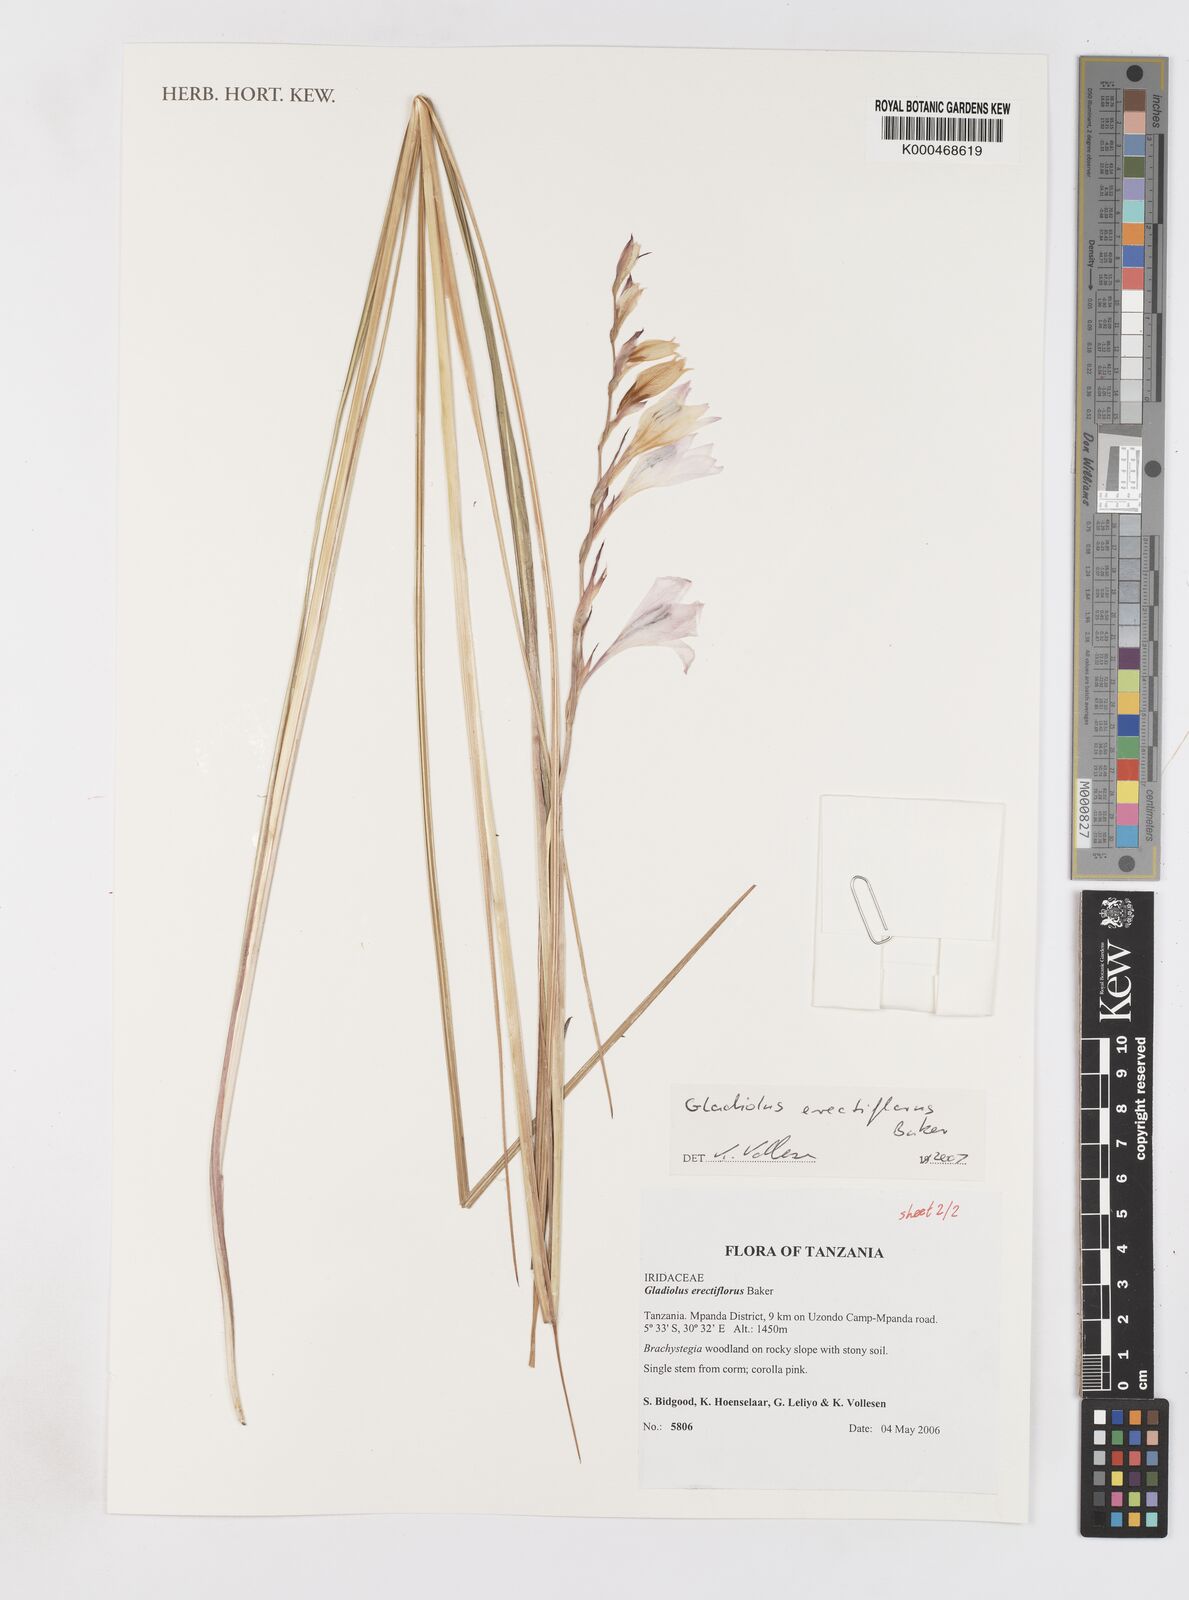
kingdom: Plantae
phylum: Tracheophyta
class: Liliopsida
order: Asparagales
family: Iridaceae
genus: Gladiolus
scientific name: Gladiolus erectiflorus
